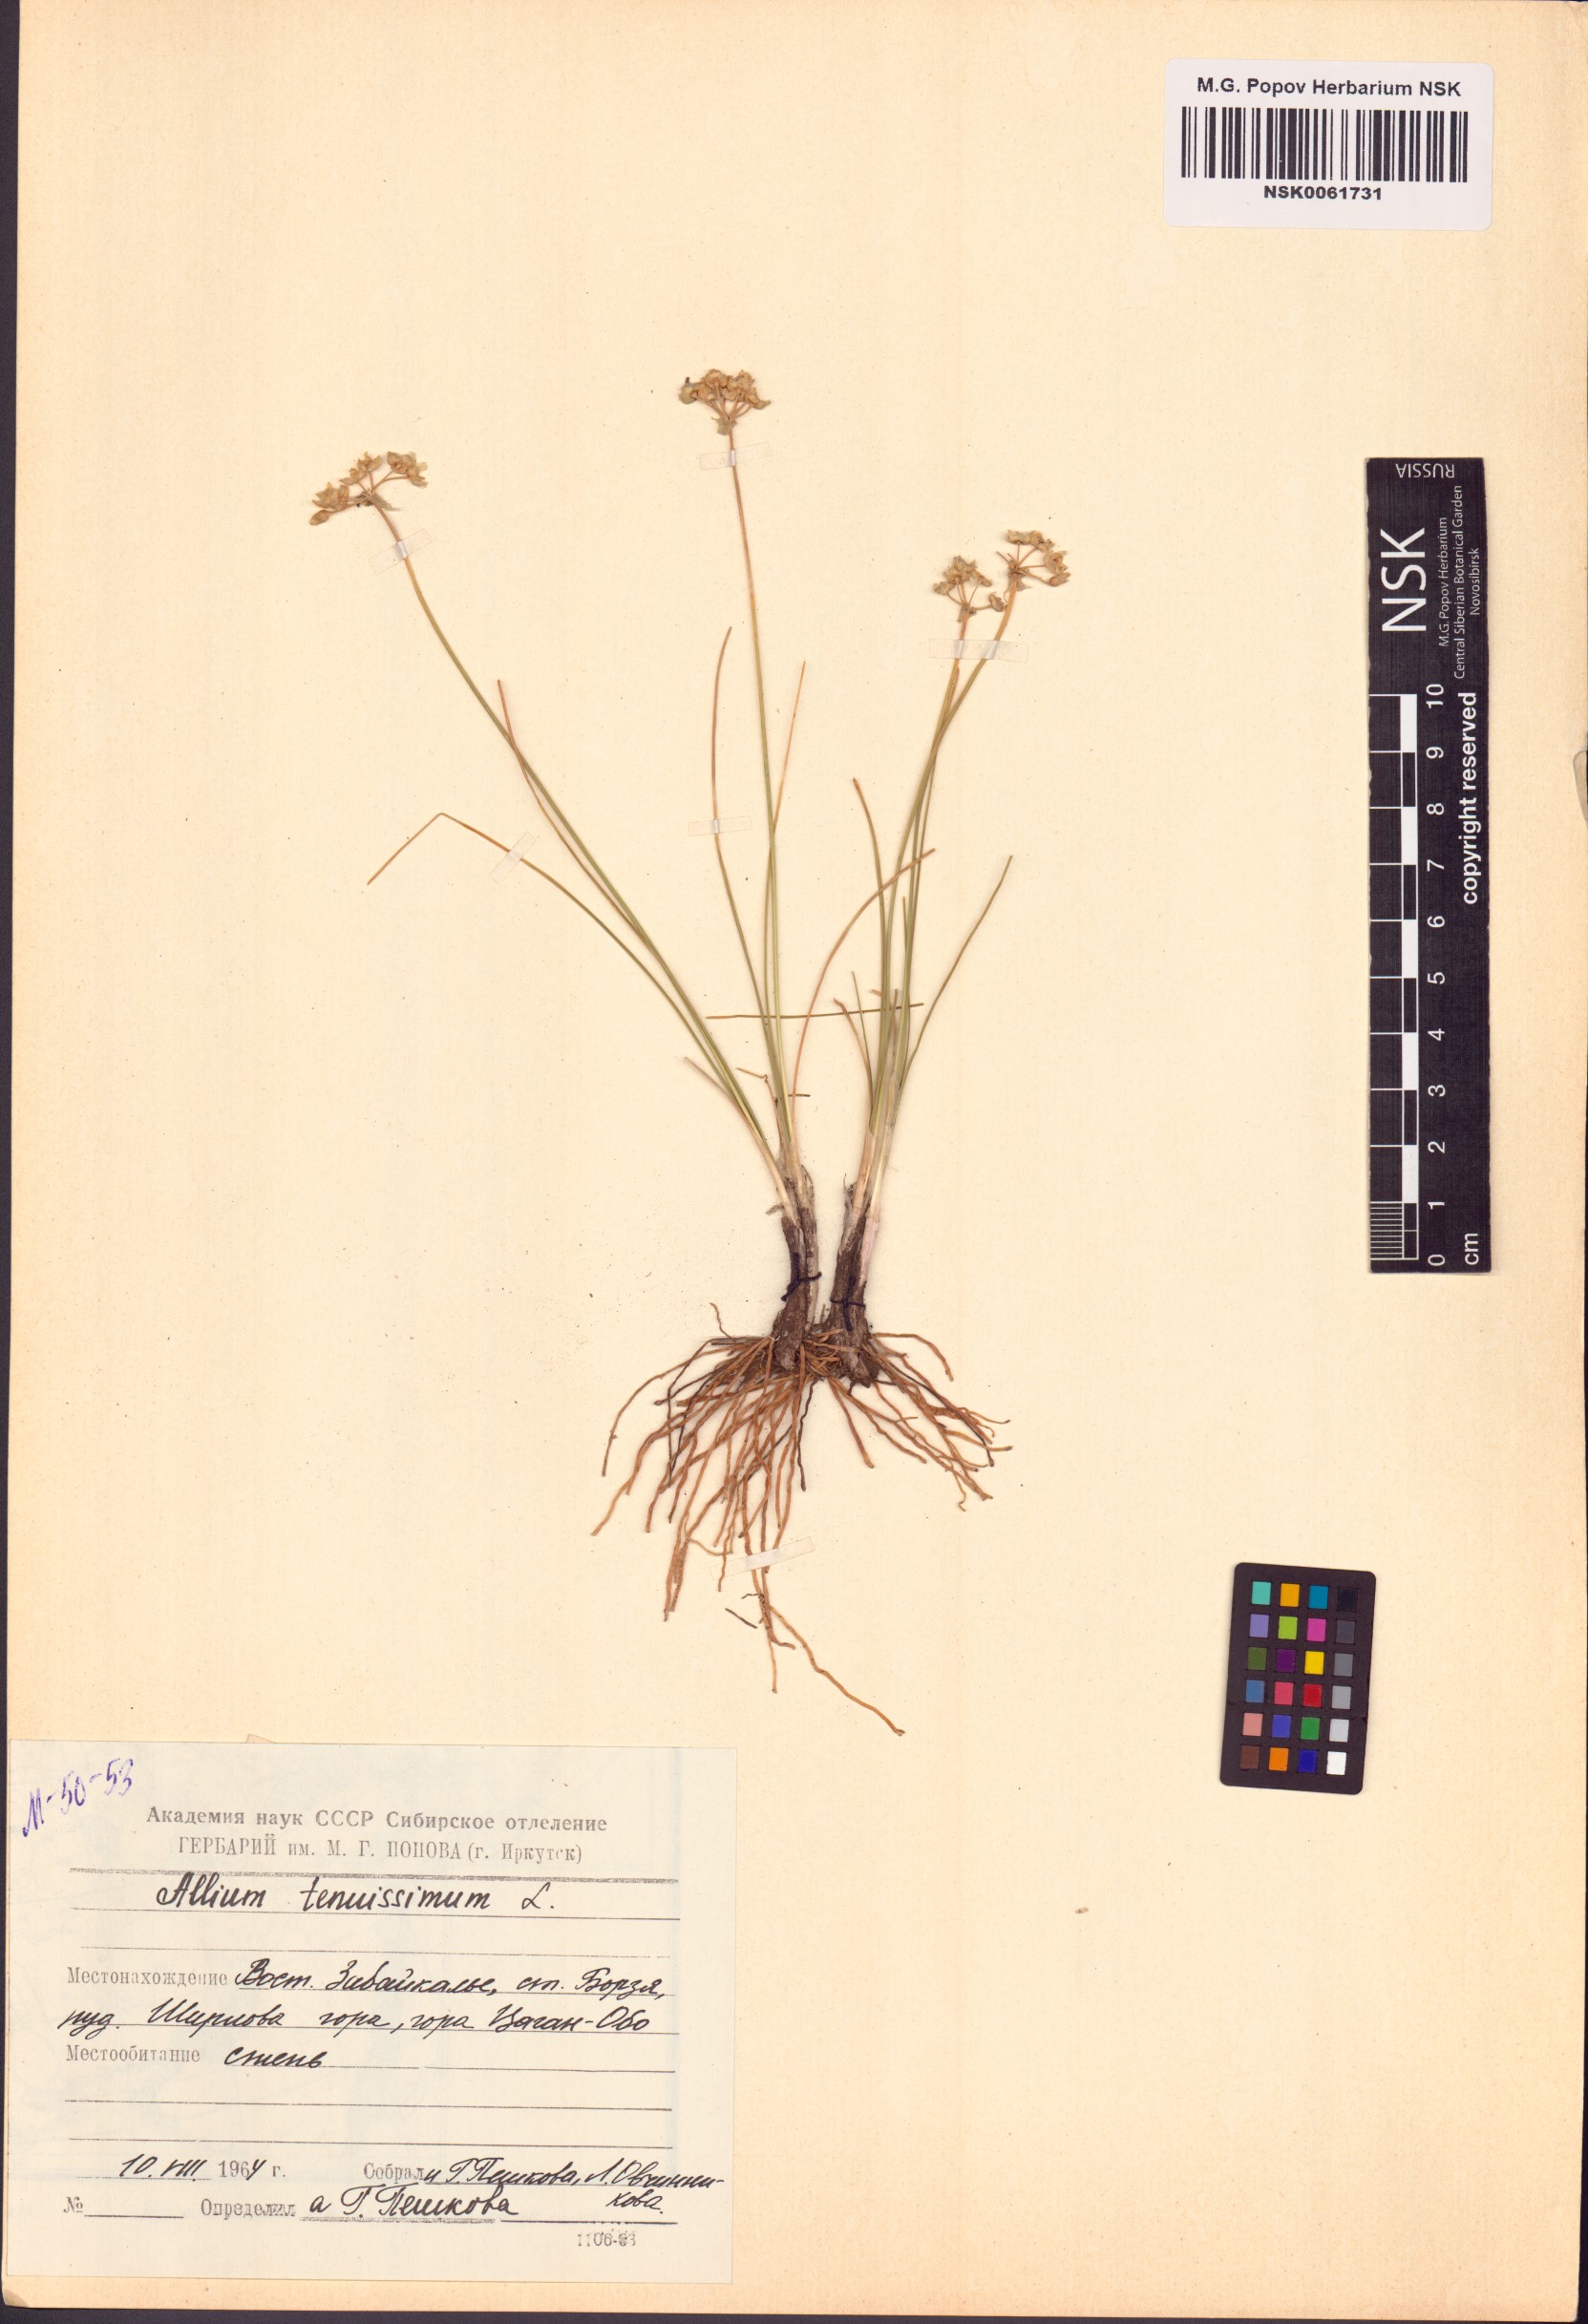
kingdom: Plantae
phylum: Tracheophyta
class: Liliopsida
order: Asparagales
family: Amaryllidaceae
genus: Allium
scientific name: Allium tenuissimum
